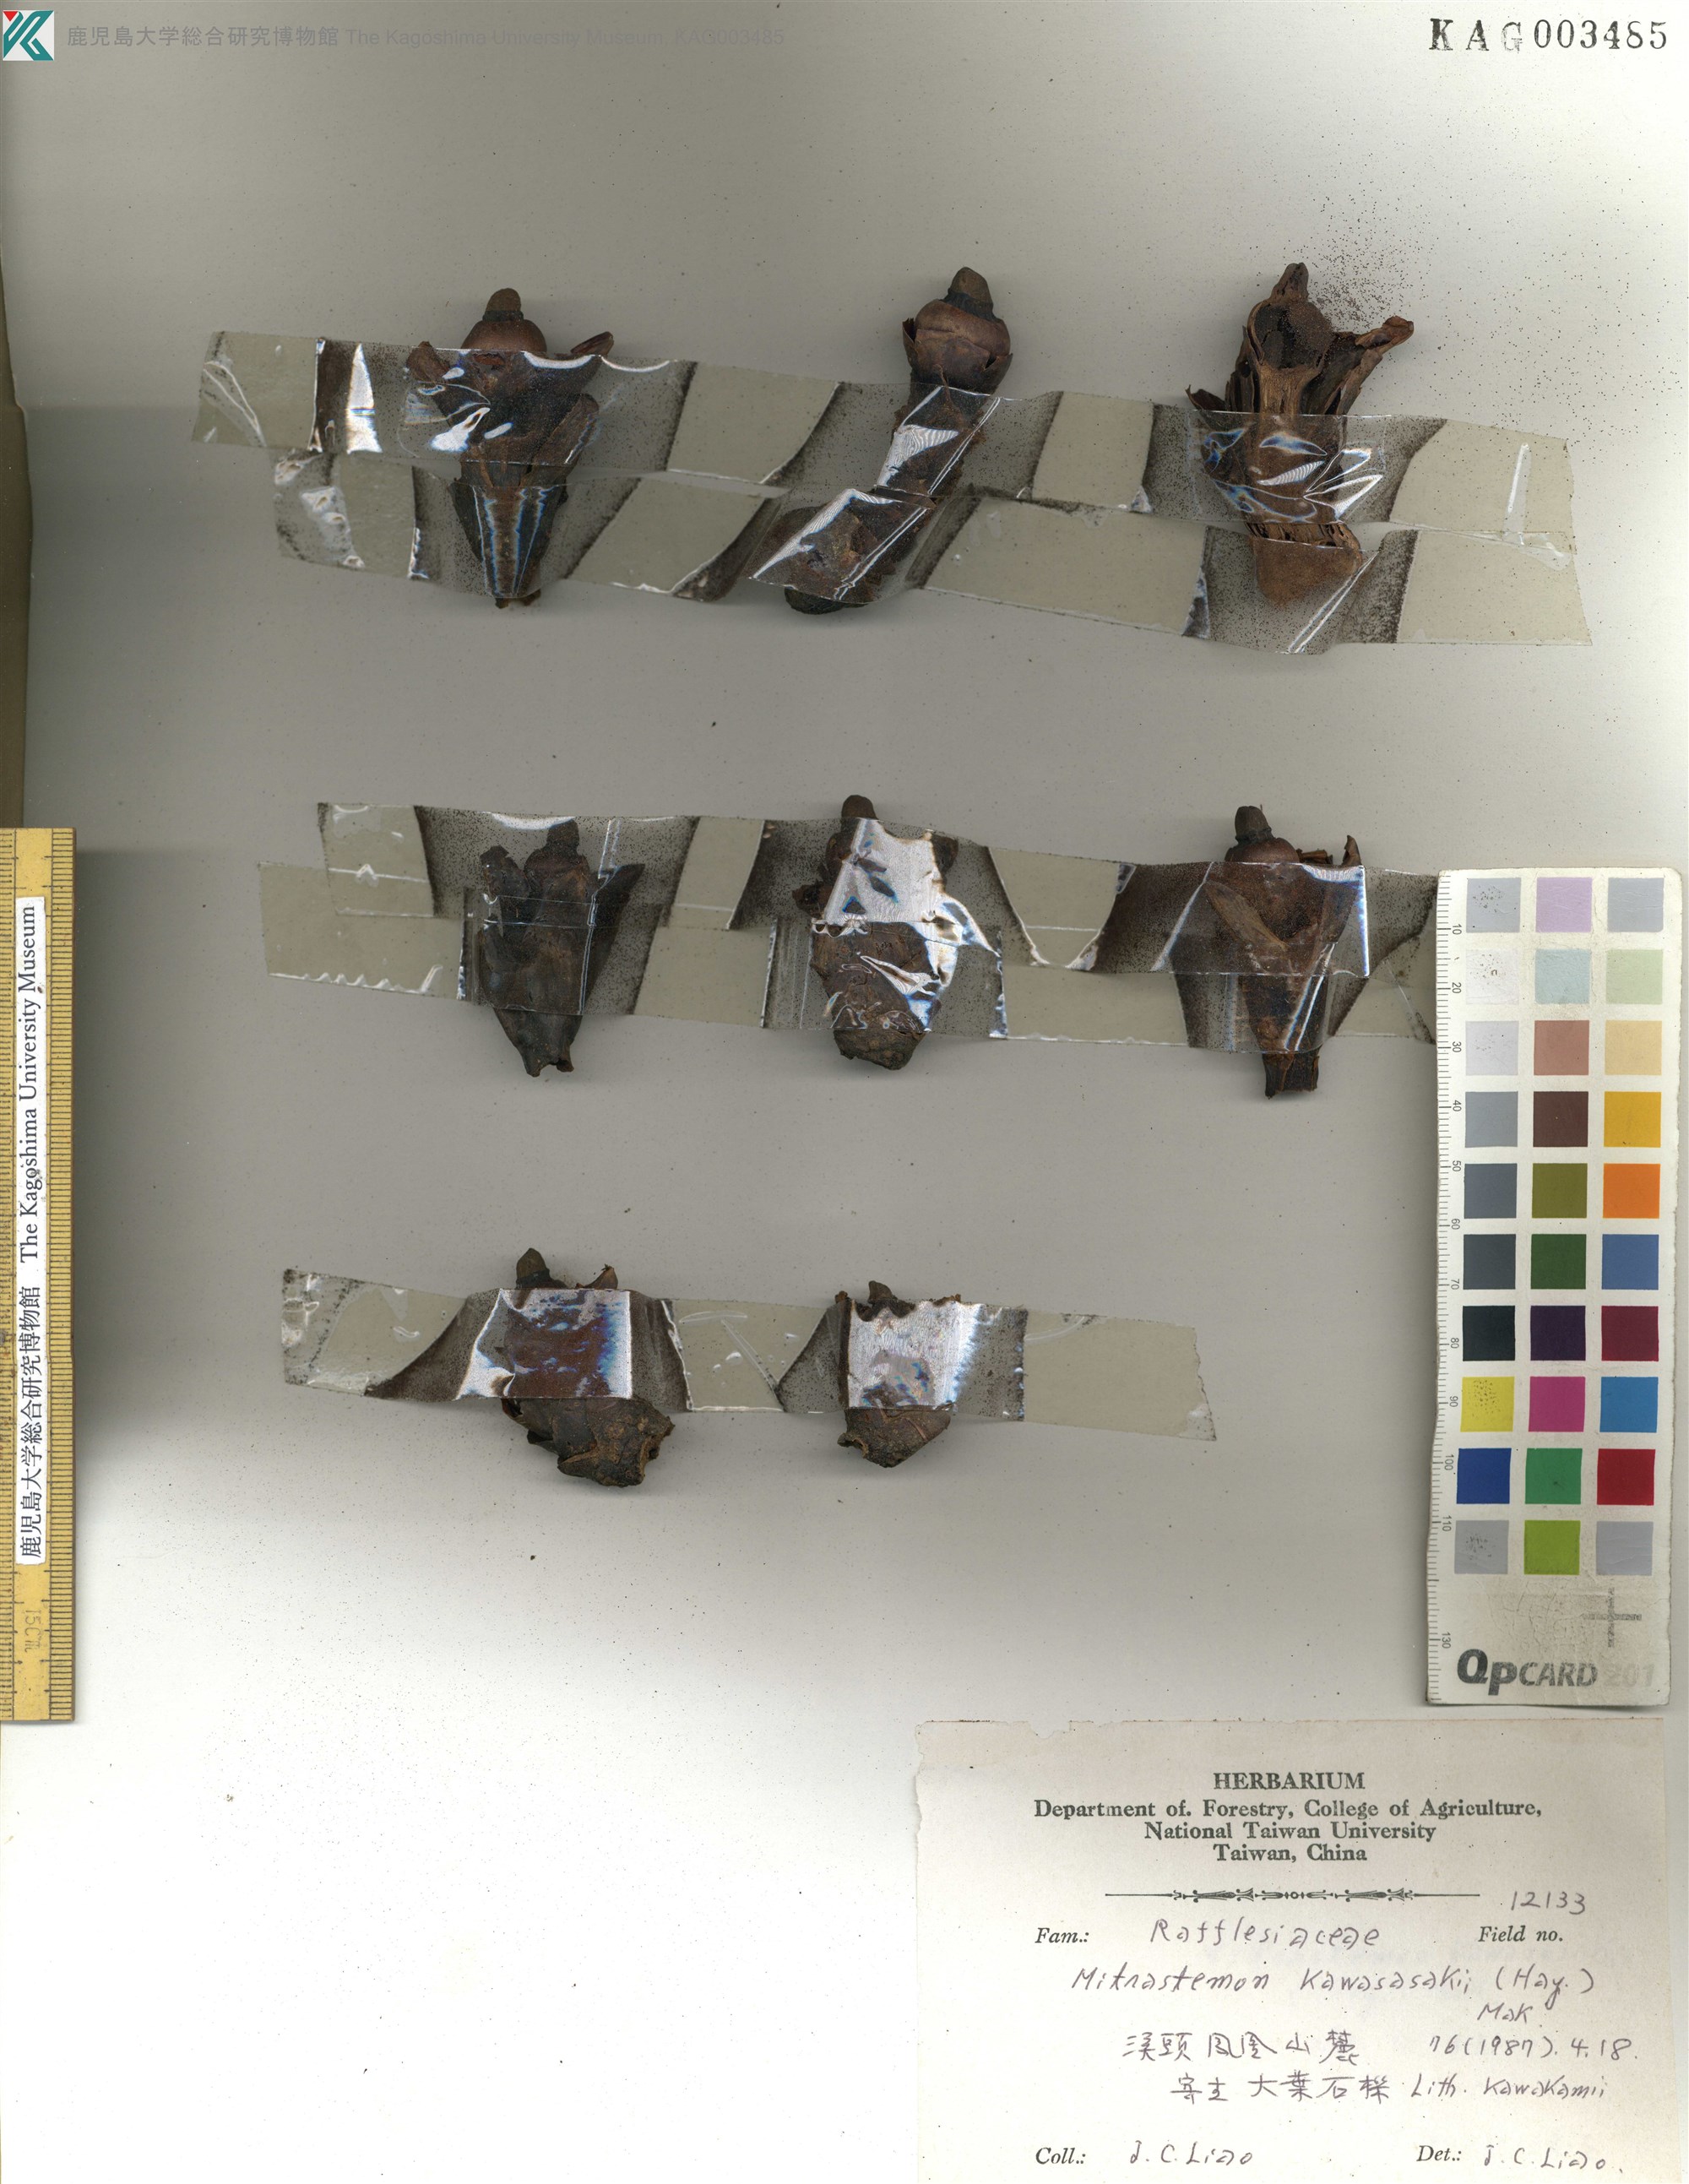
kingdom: Plantae
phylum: Tracheophyta
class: Magnoliopsida
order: Ericales
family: Mitrastemonaceae
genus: Mitrastemon
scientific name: Mitrastemon yamamotoi
